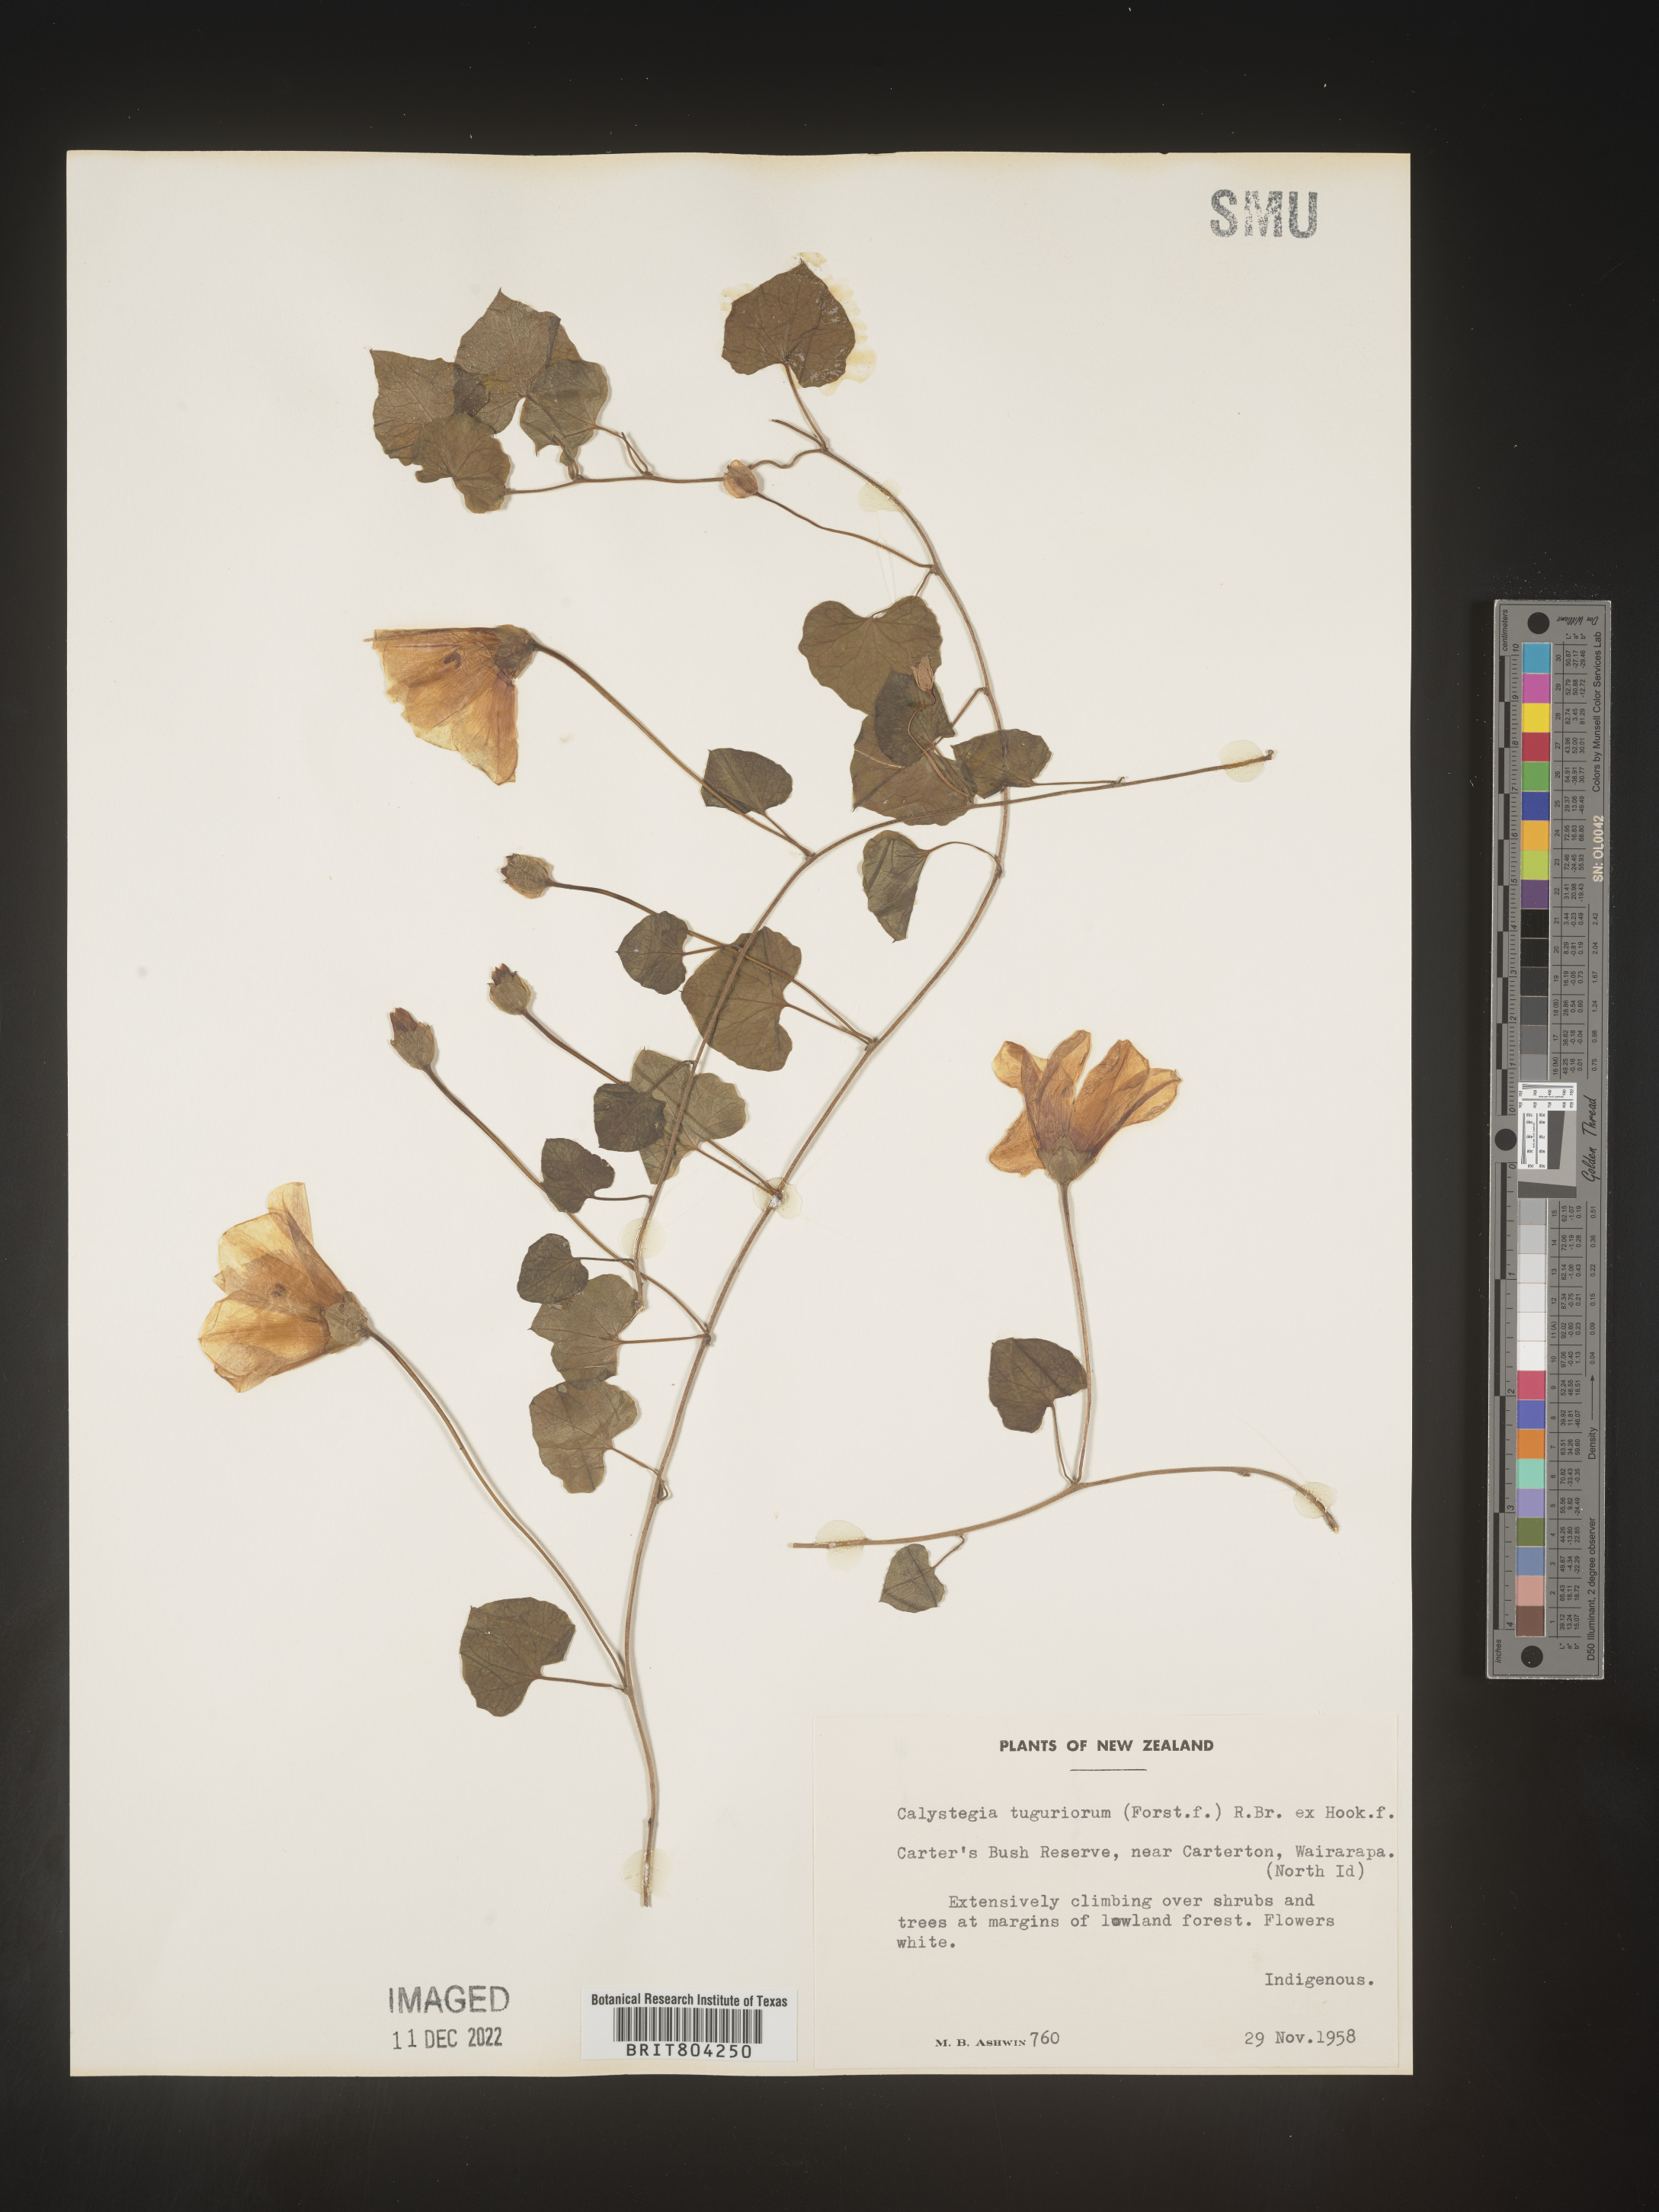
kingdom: Plantae
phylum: Tracheophyta
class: Magnoliopsida
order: Solanales
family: Convolvulaceae
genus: Calystegia
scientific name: Calystegia
